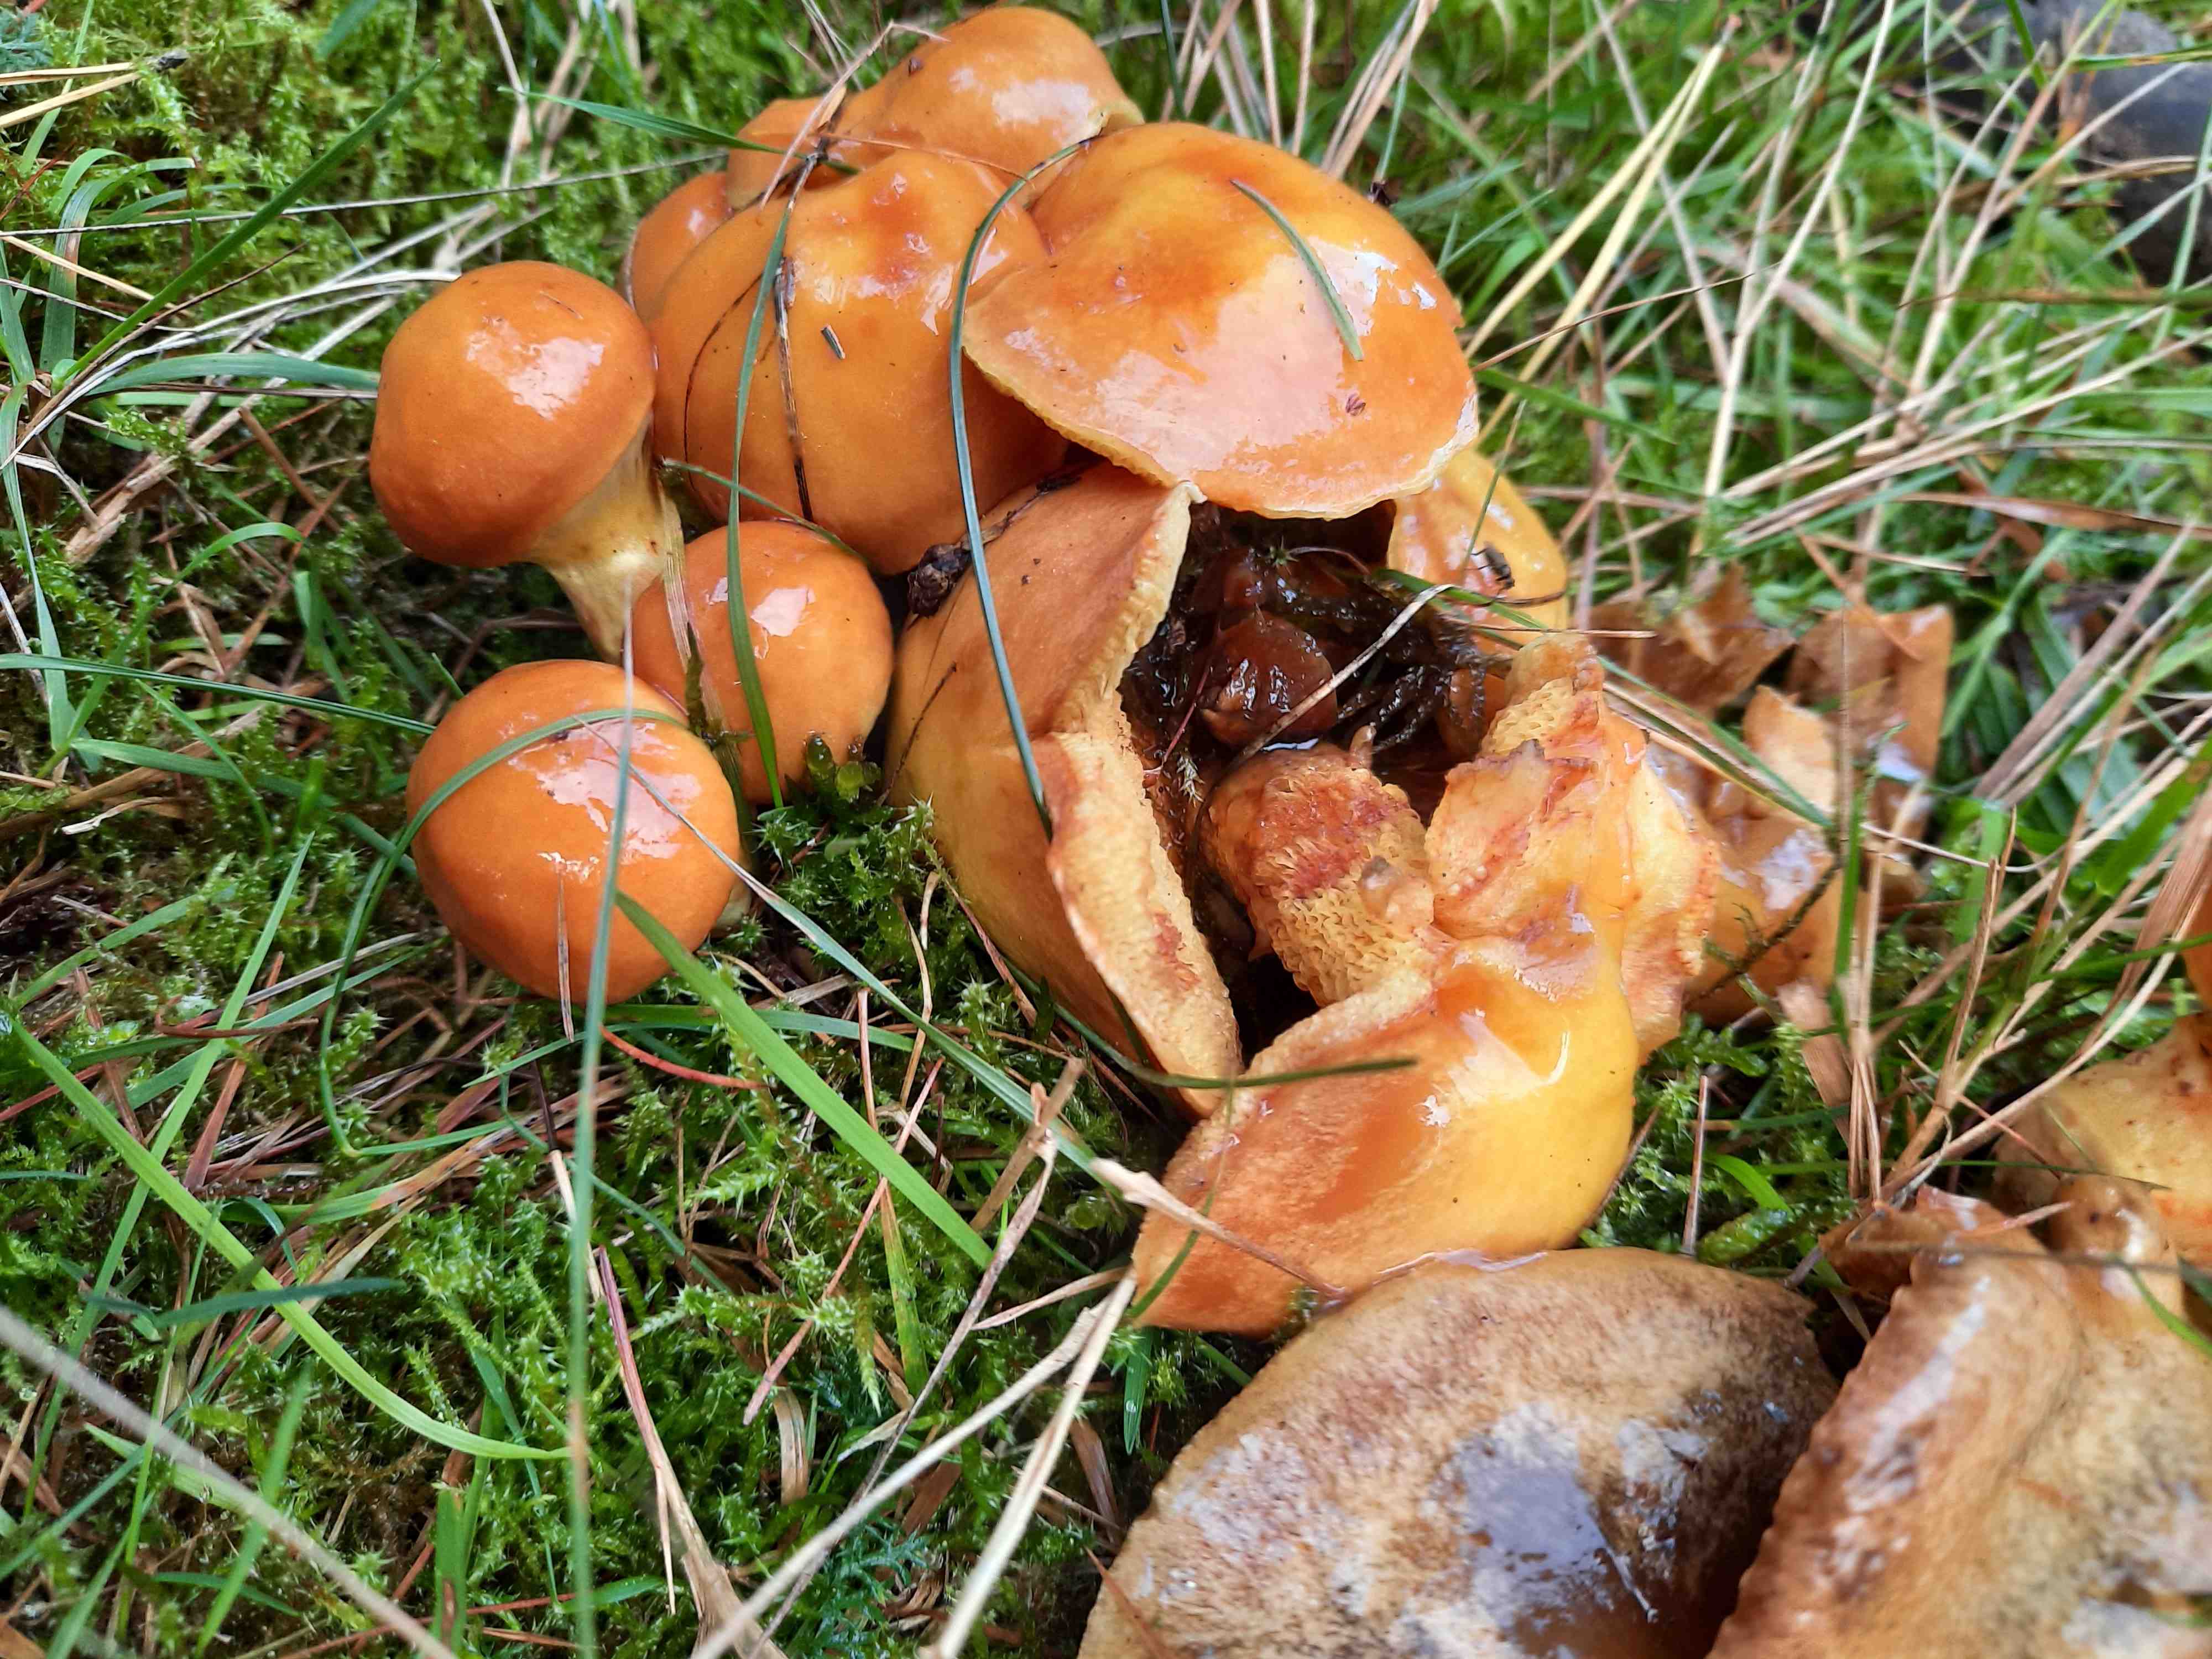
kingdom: Fungi
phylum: Basidiomycota
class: Agaricomycetes
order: Boletales
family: Suillaceae
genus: Suillus
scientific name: Suillus grevillei
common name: lærke-slimrørhat
